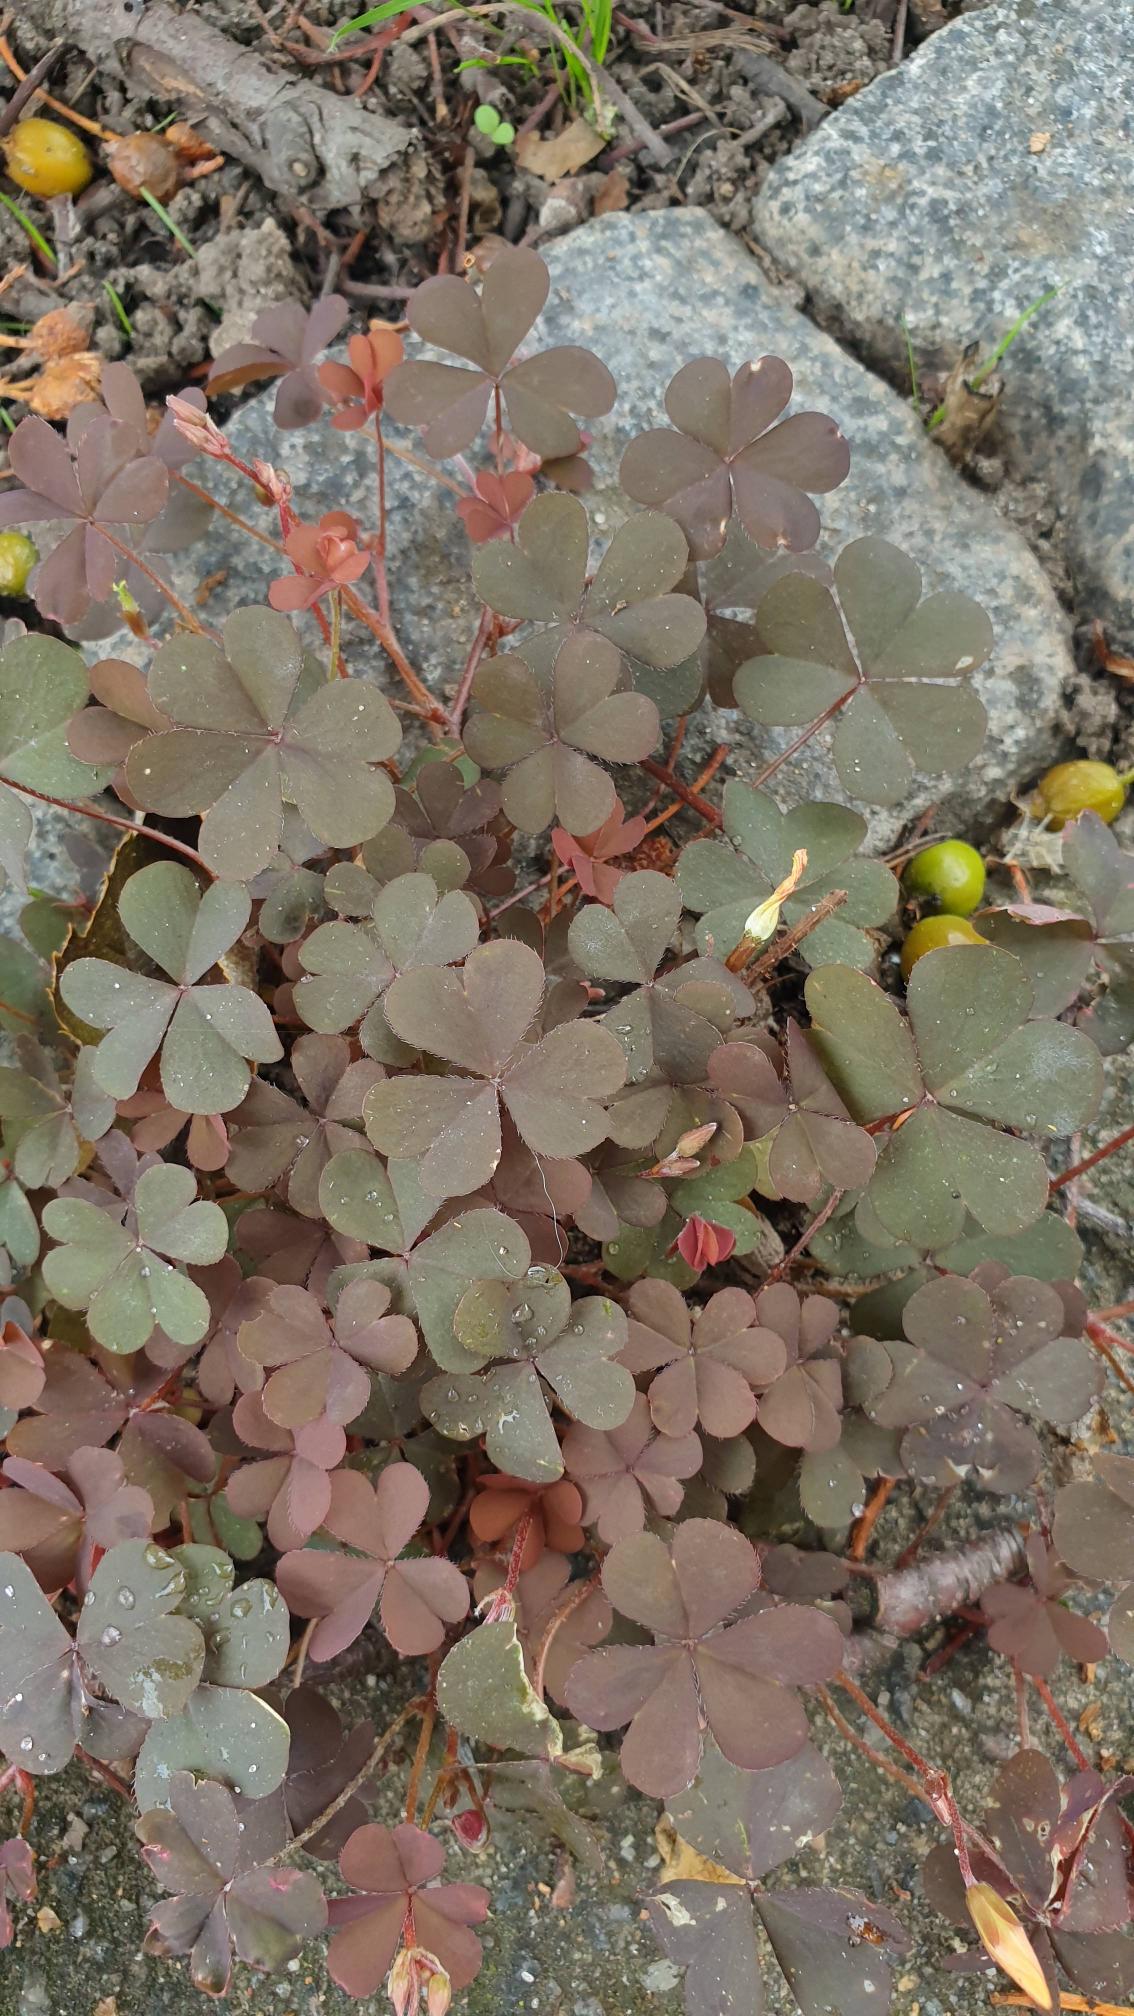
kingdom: Plantae
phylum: Tracheophyta
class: Magnoliopsida
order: Oxalidales
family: Oxalidaceae
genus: Oxalis
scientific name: Oxalis corniculata
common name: Nedliggende surkløver
